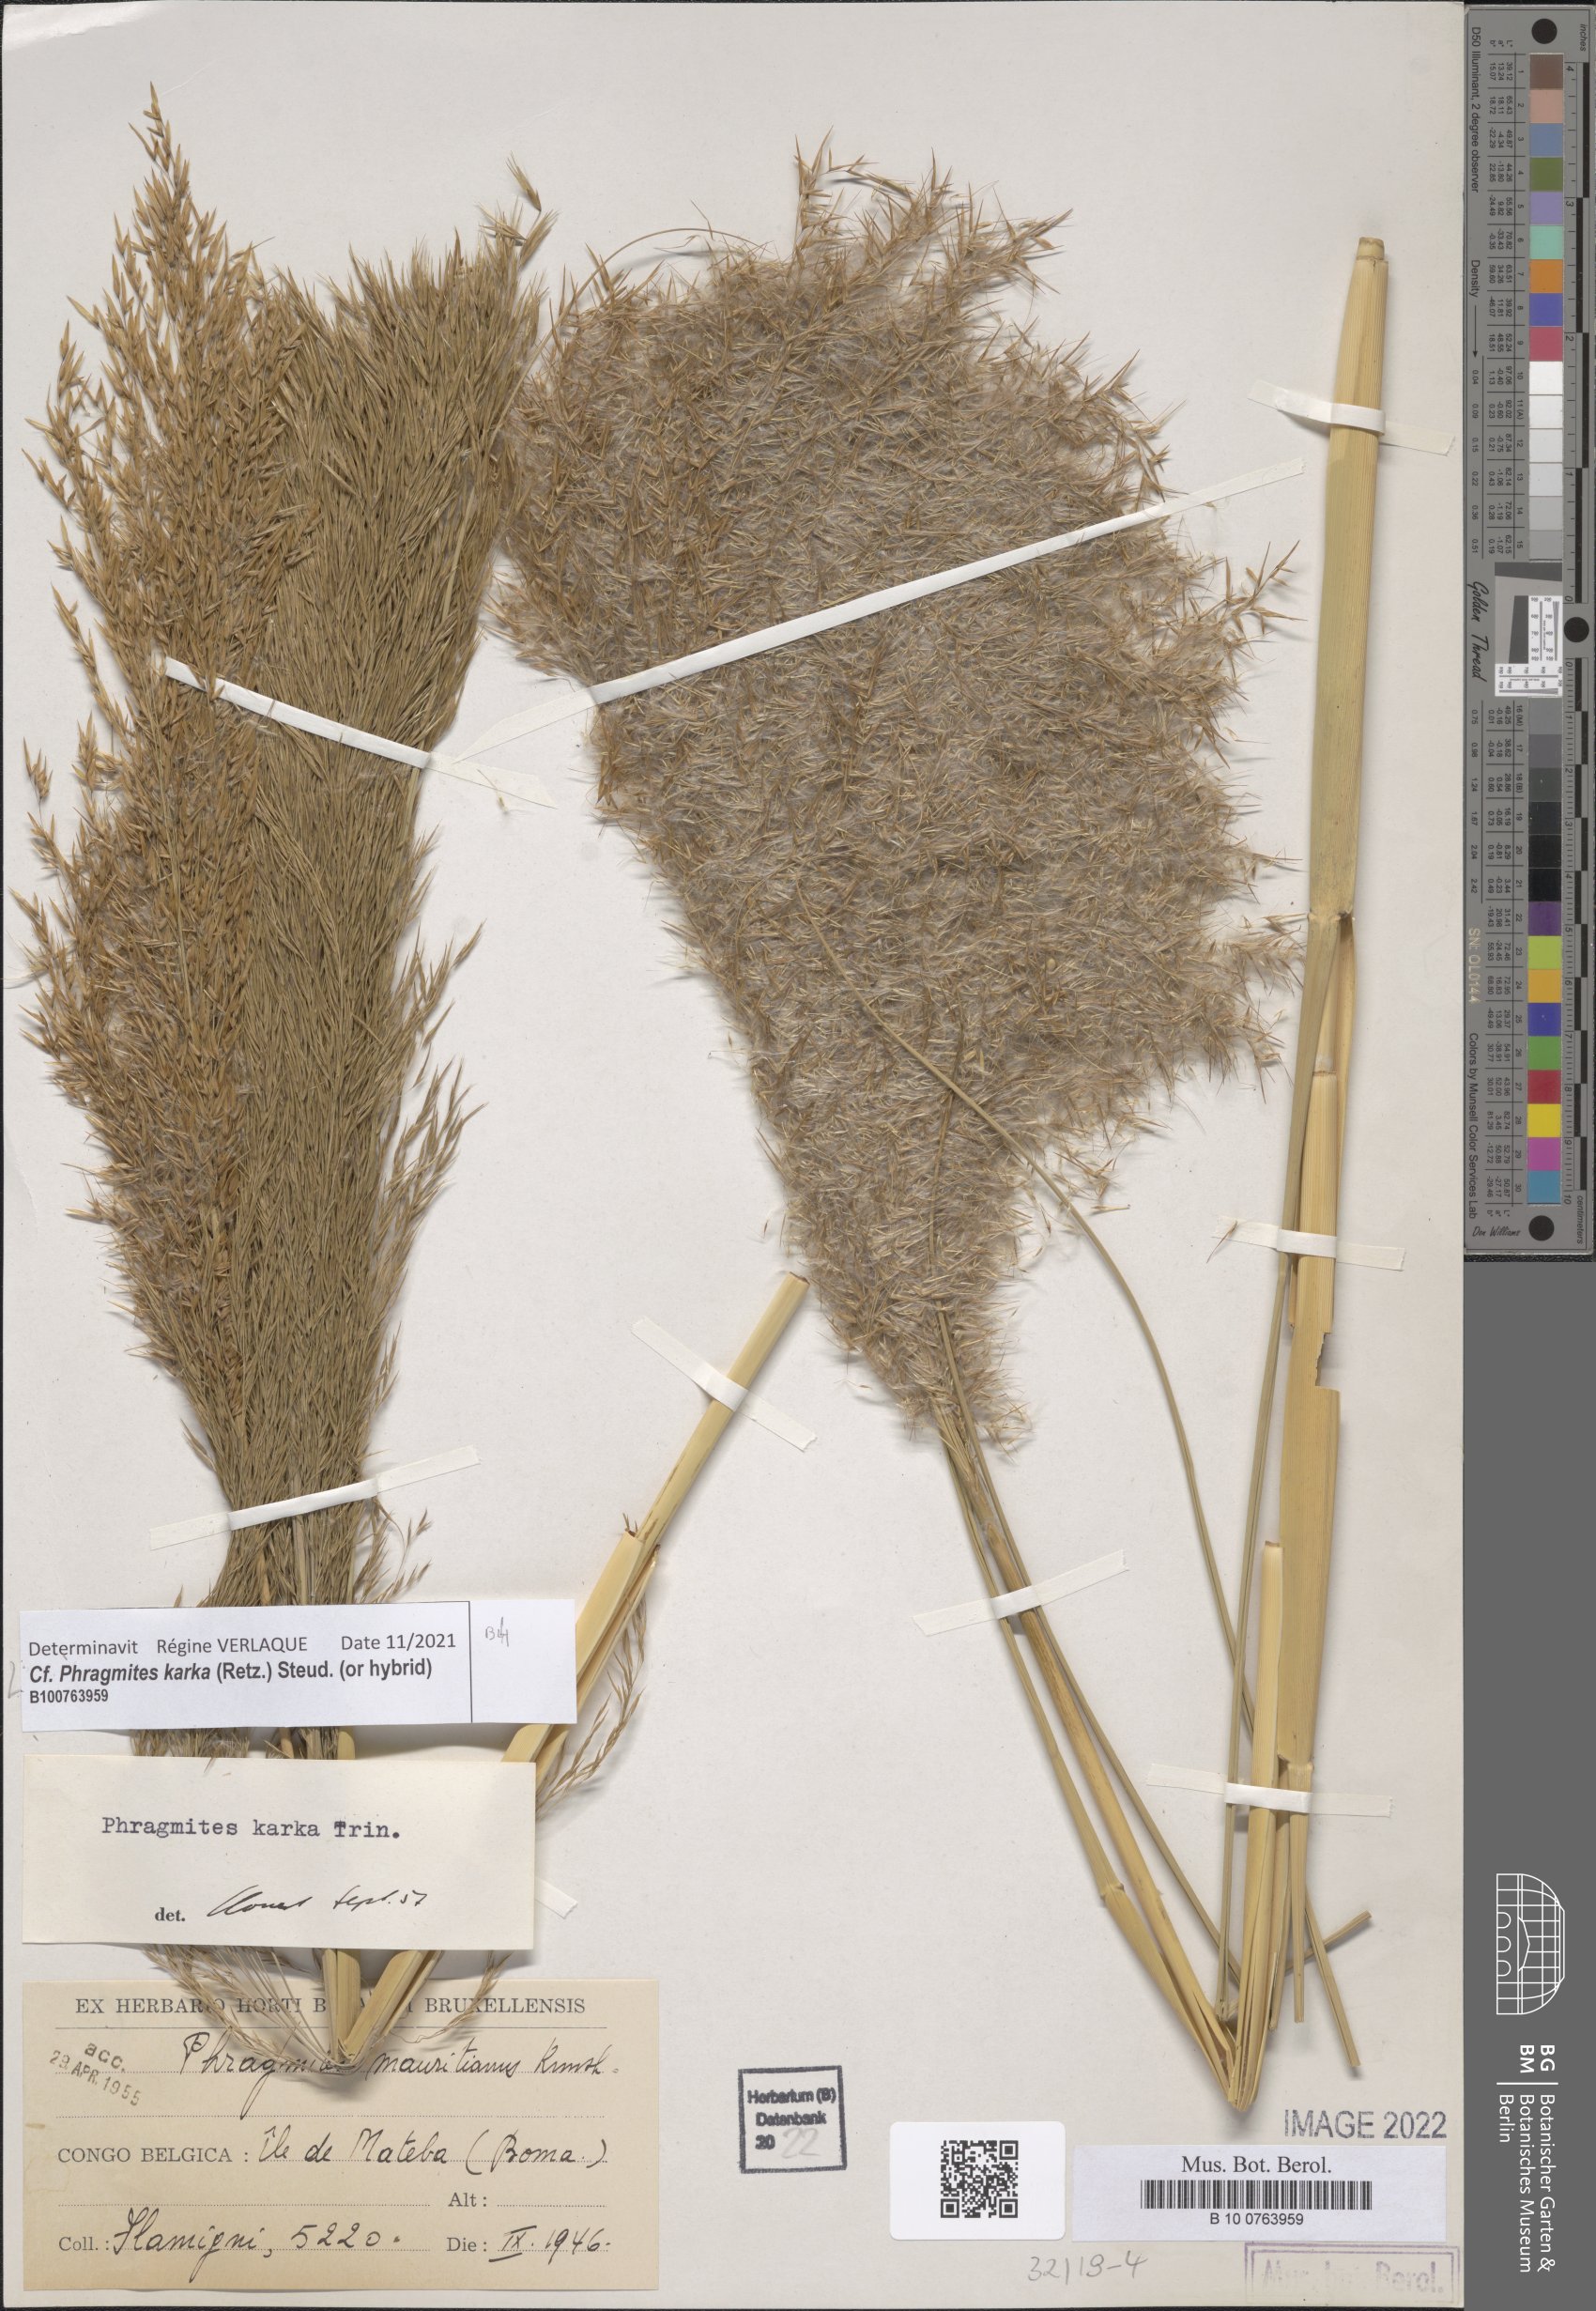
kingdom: Plantae
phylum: Tracheophyta
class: Liliopsida
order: Poales
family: Poaceae
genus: Phragmites
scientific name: Phragmites karka
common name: Tropical reed
